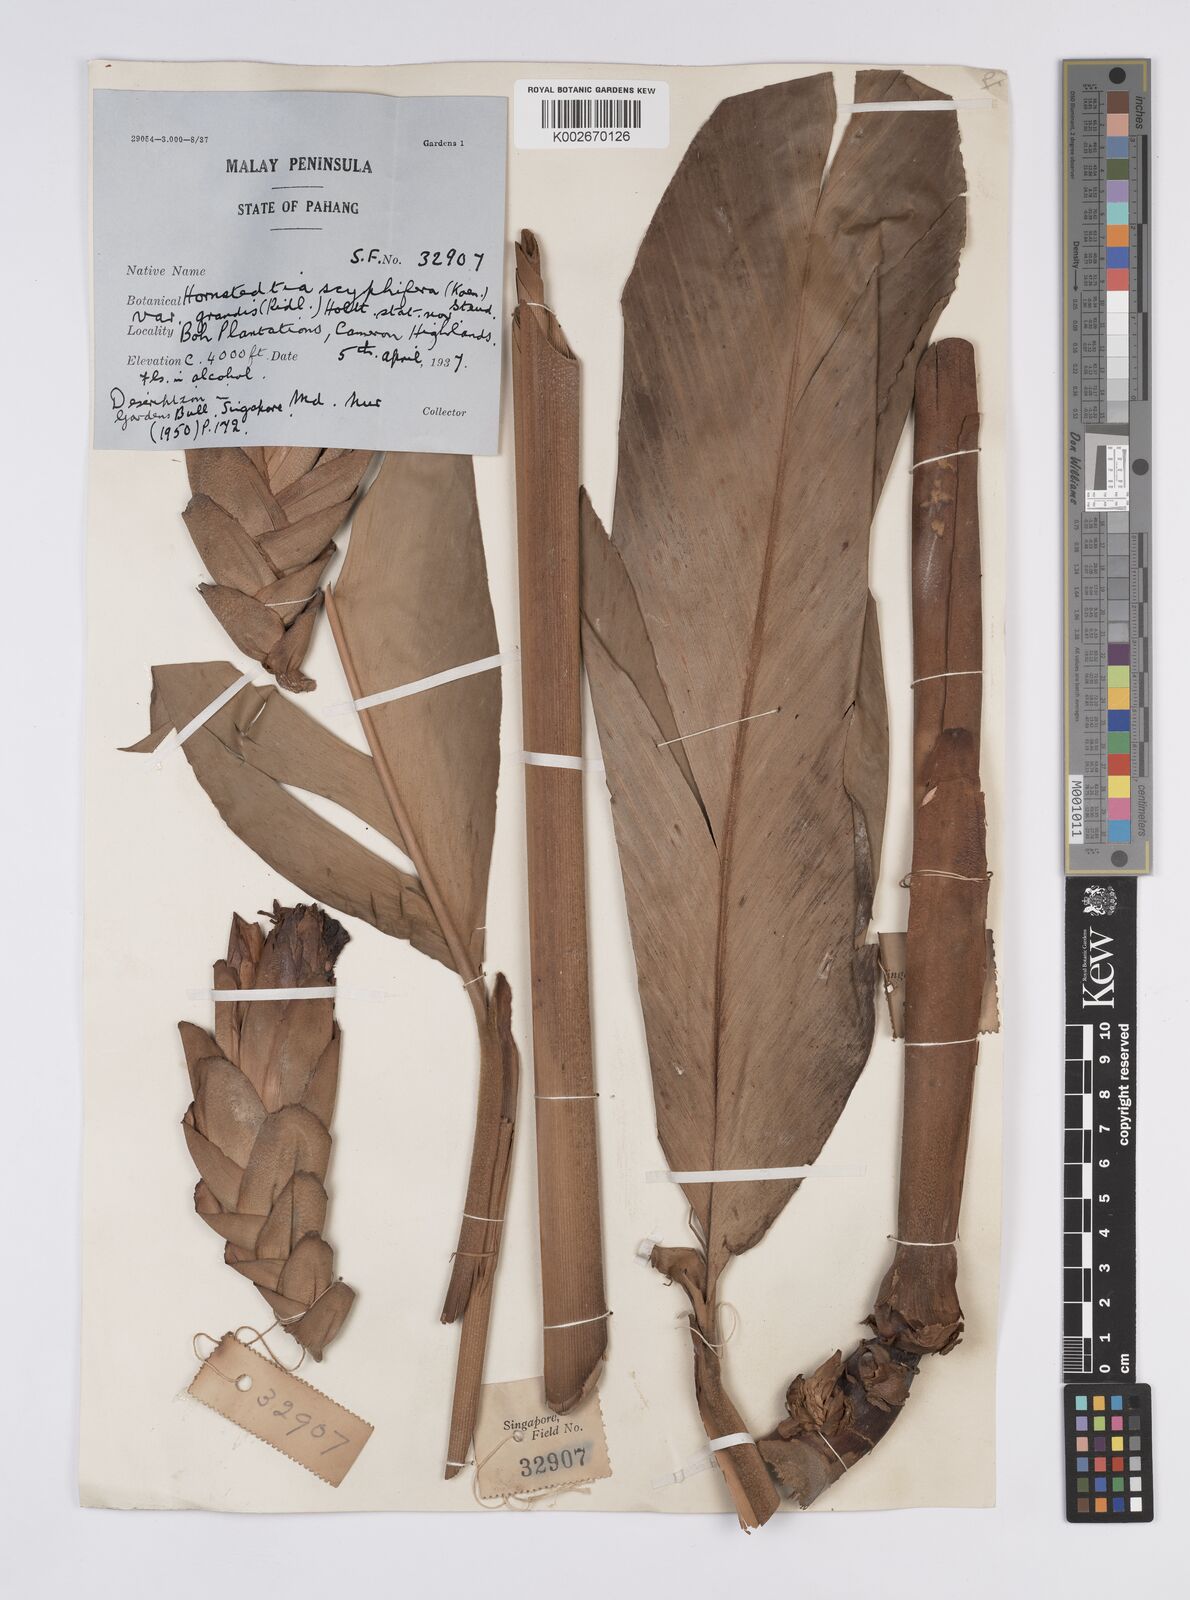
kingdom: Plantae
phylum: Tracheophyta
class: Liliopsida
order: Zingiberales
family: Zingiberaceae
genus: Hornstedtia
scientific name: Hornstedtia scyphifera
